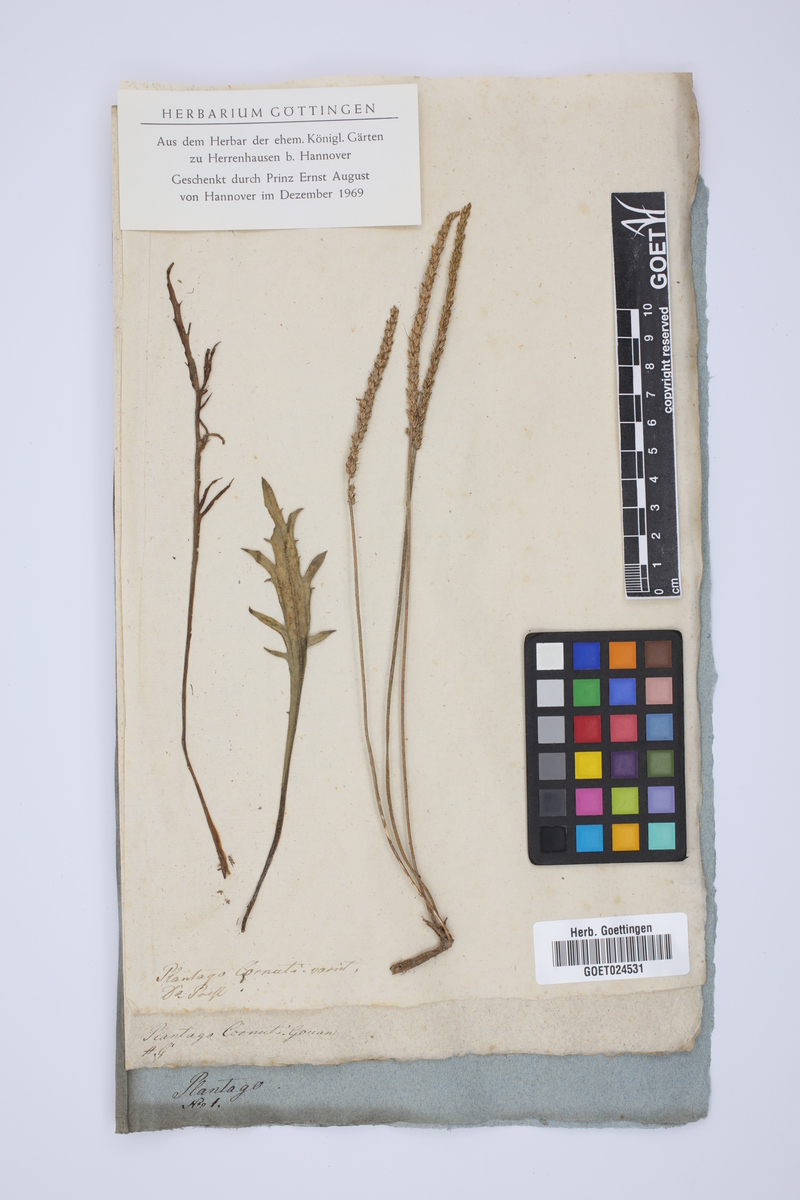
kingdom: Plantae
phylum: Tracheophyta
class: Magnoliopsida
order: Lamiales
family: Plantaginaceae
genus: Plantago
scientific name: Plantago cornuti
